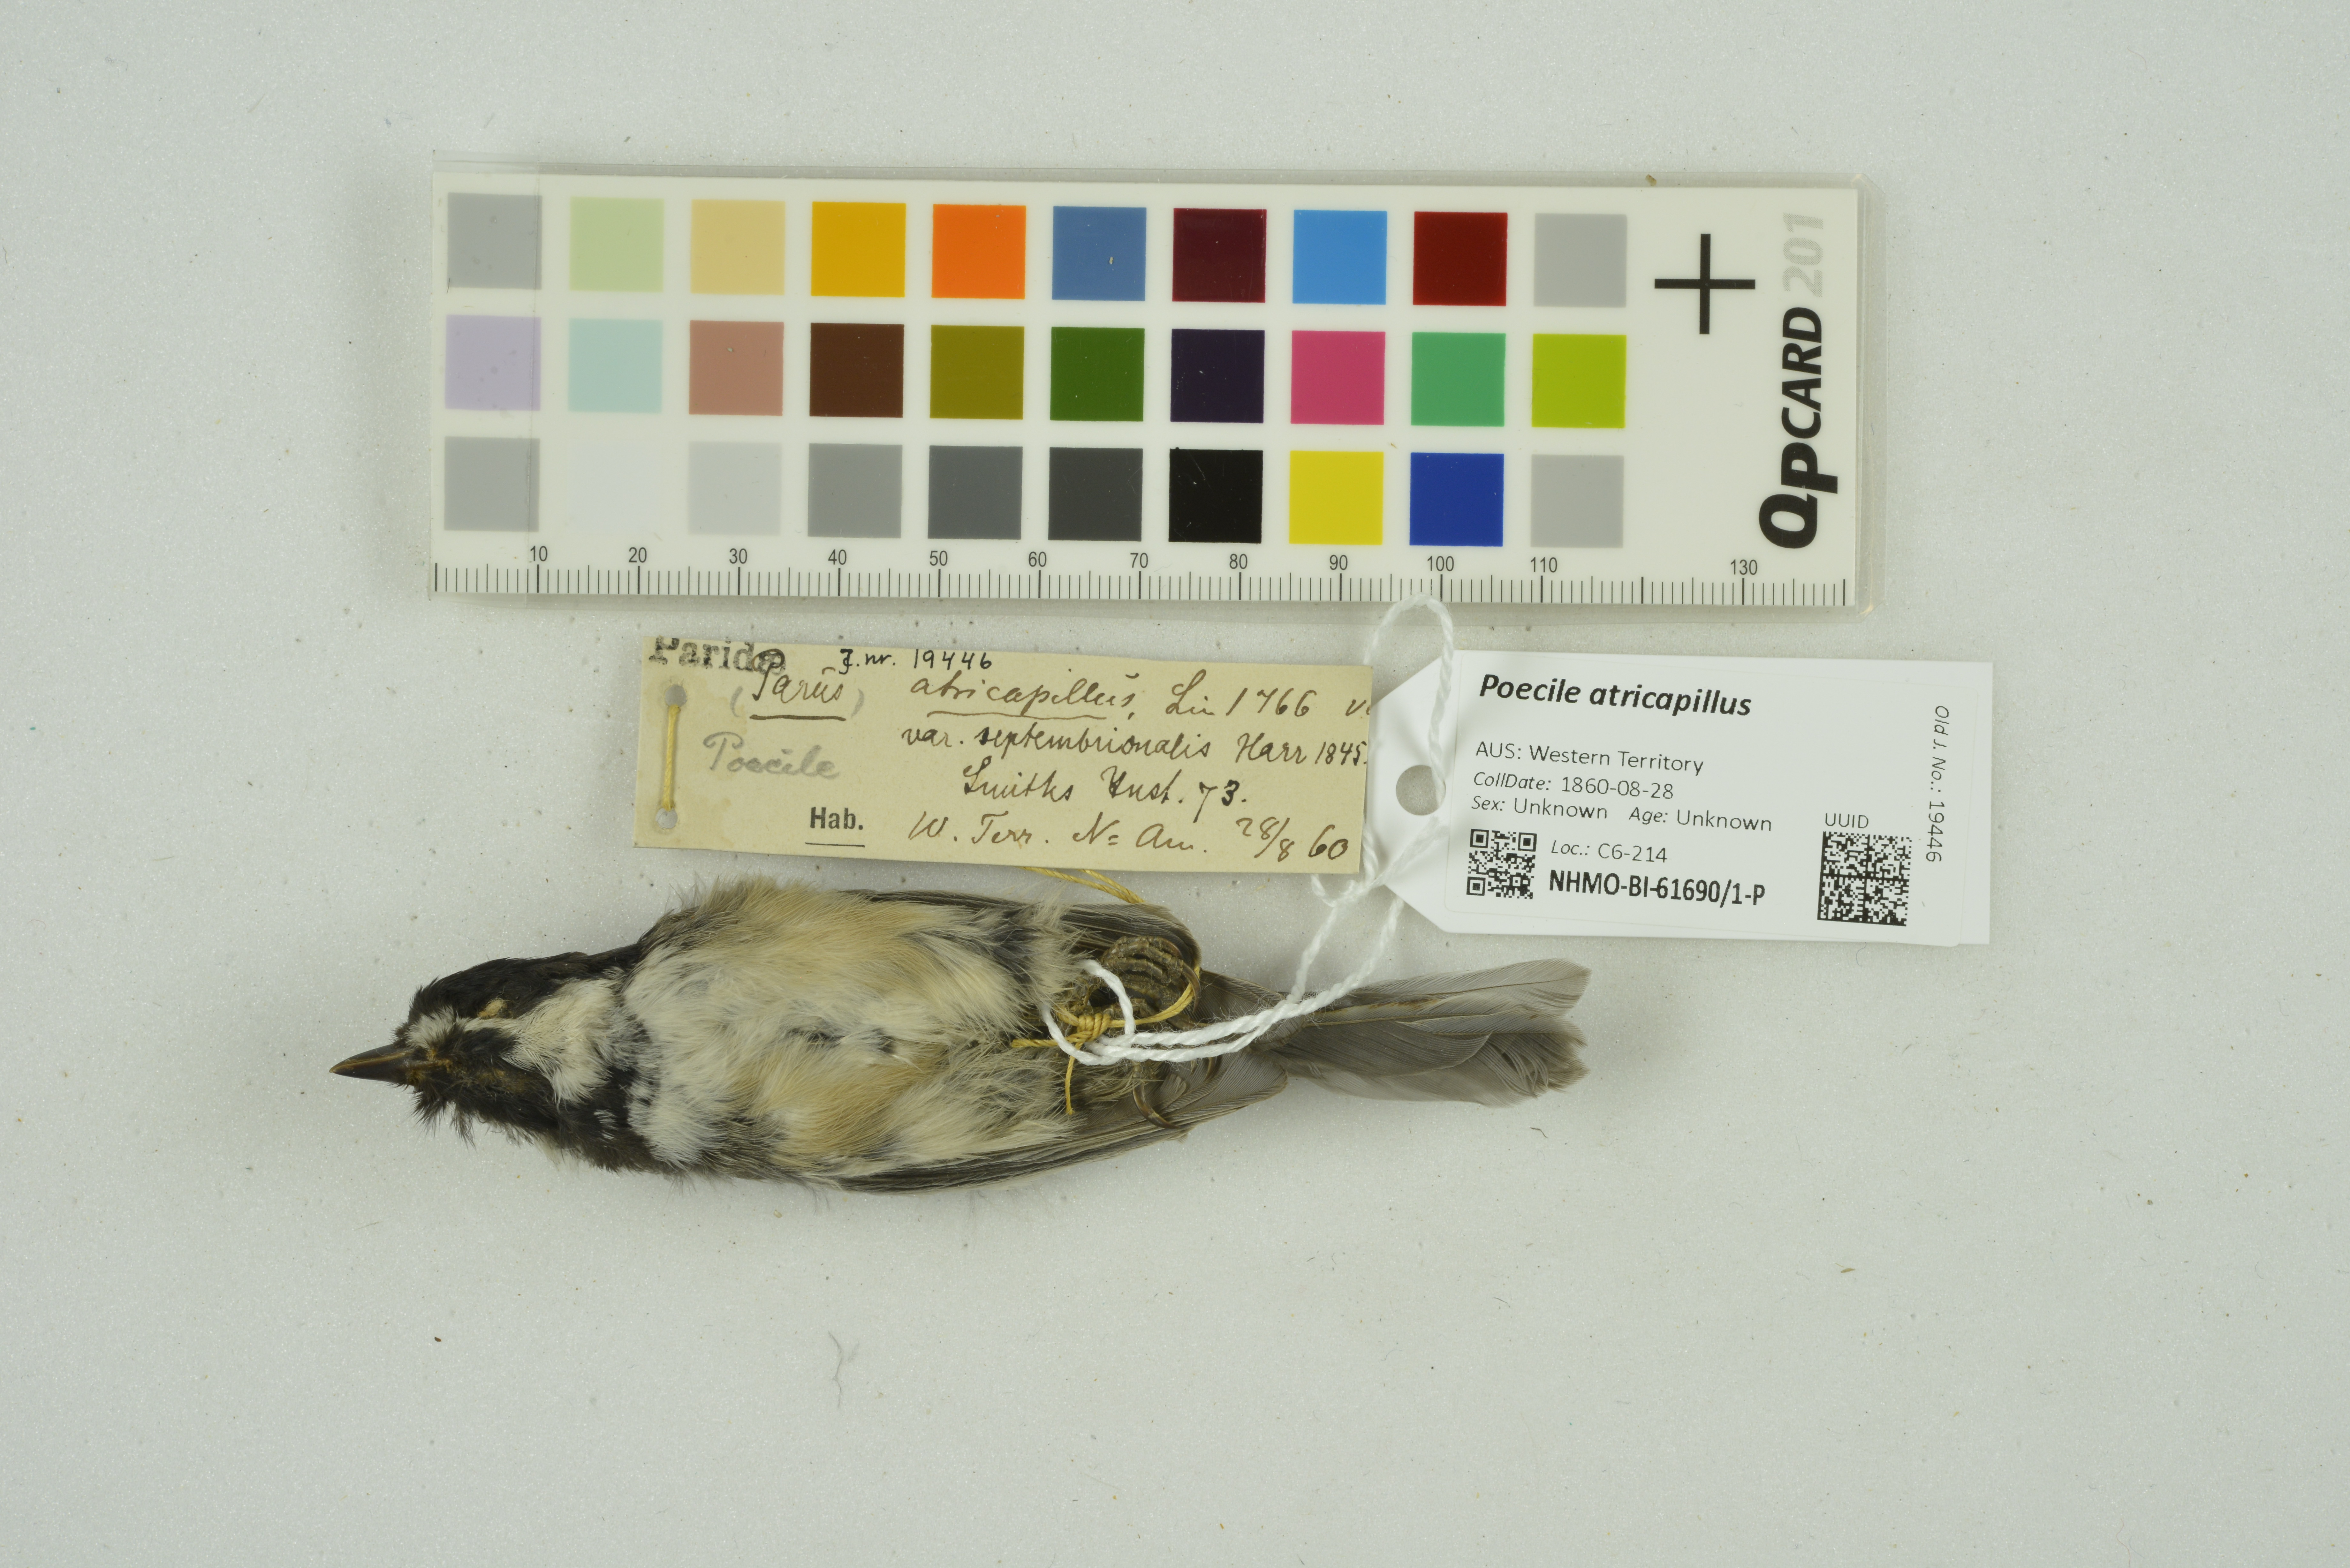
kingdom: Animalia
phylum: Chordata
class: Aves
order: Passeriformes
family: Paridae
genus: Poecile
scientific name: Poecile atricapillus
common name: Black-capped chickadee
